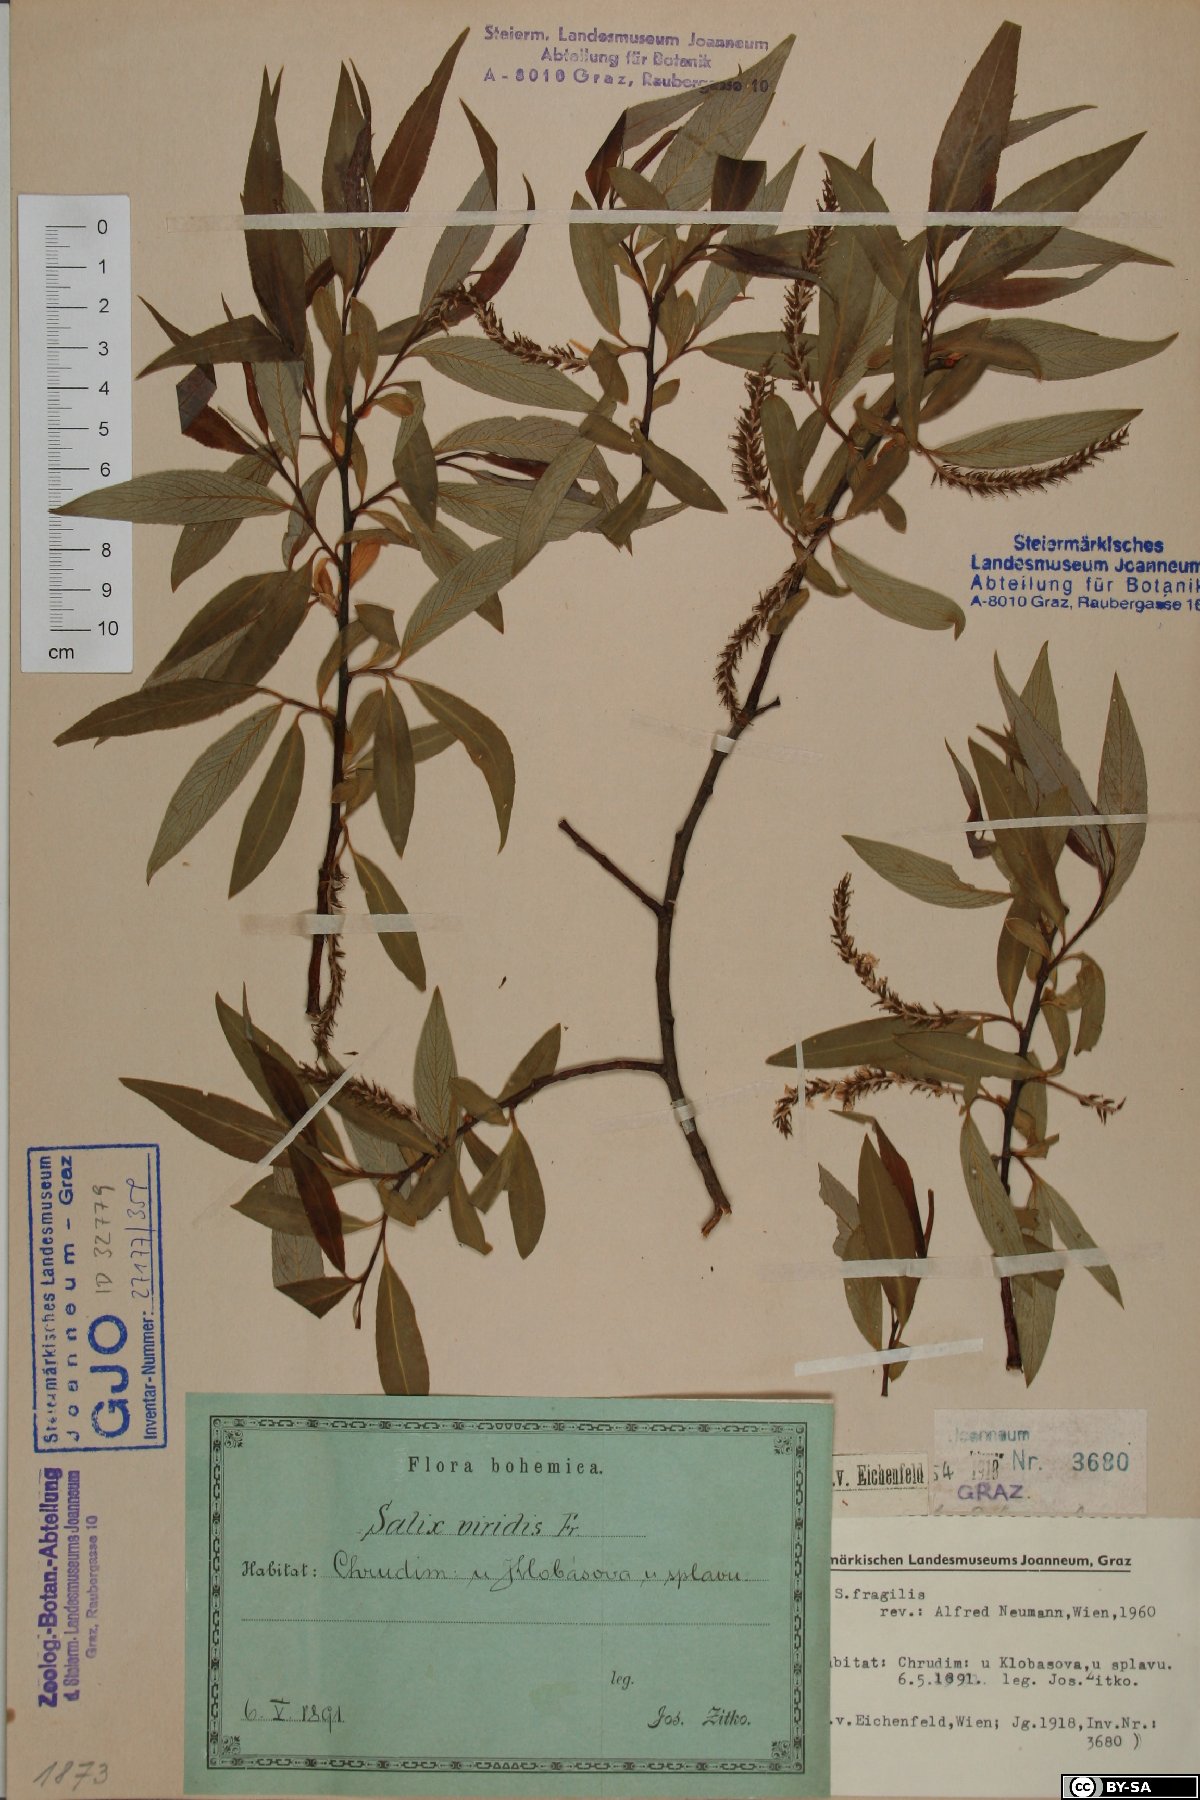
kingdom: Plantae
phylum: Tracheophyta
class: Magnoliopsida
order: Malpighiales
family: Salicaceae
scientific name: Salicaceae
